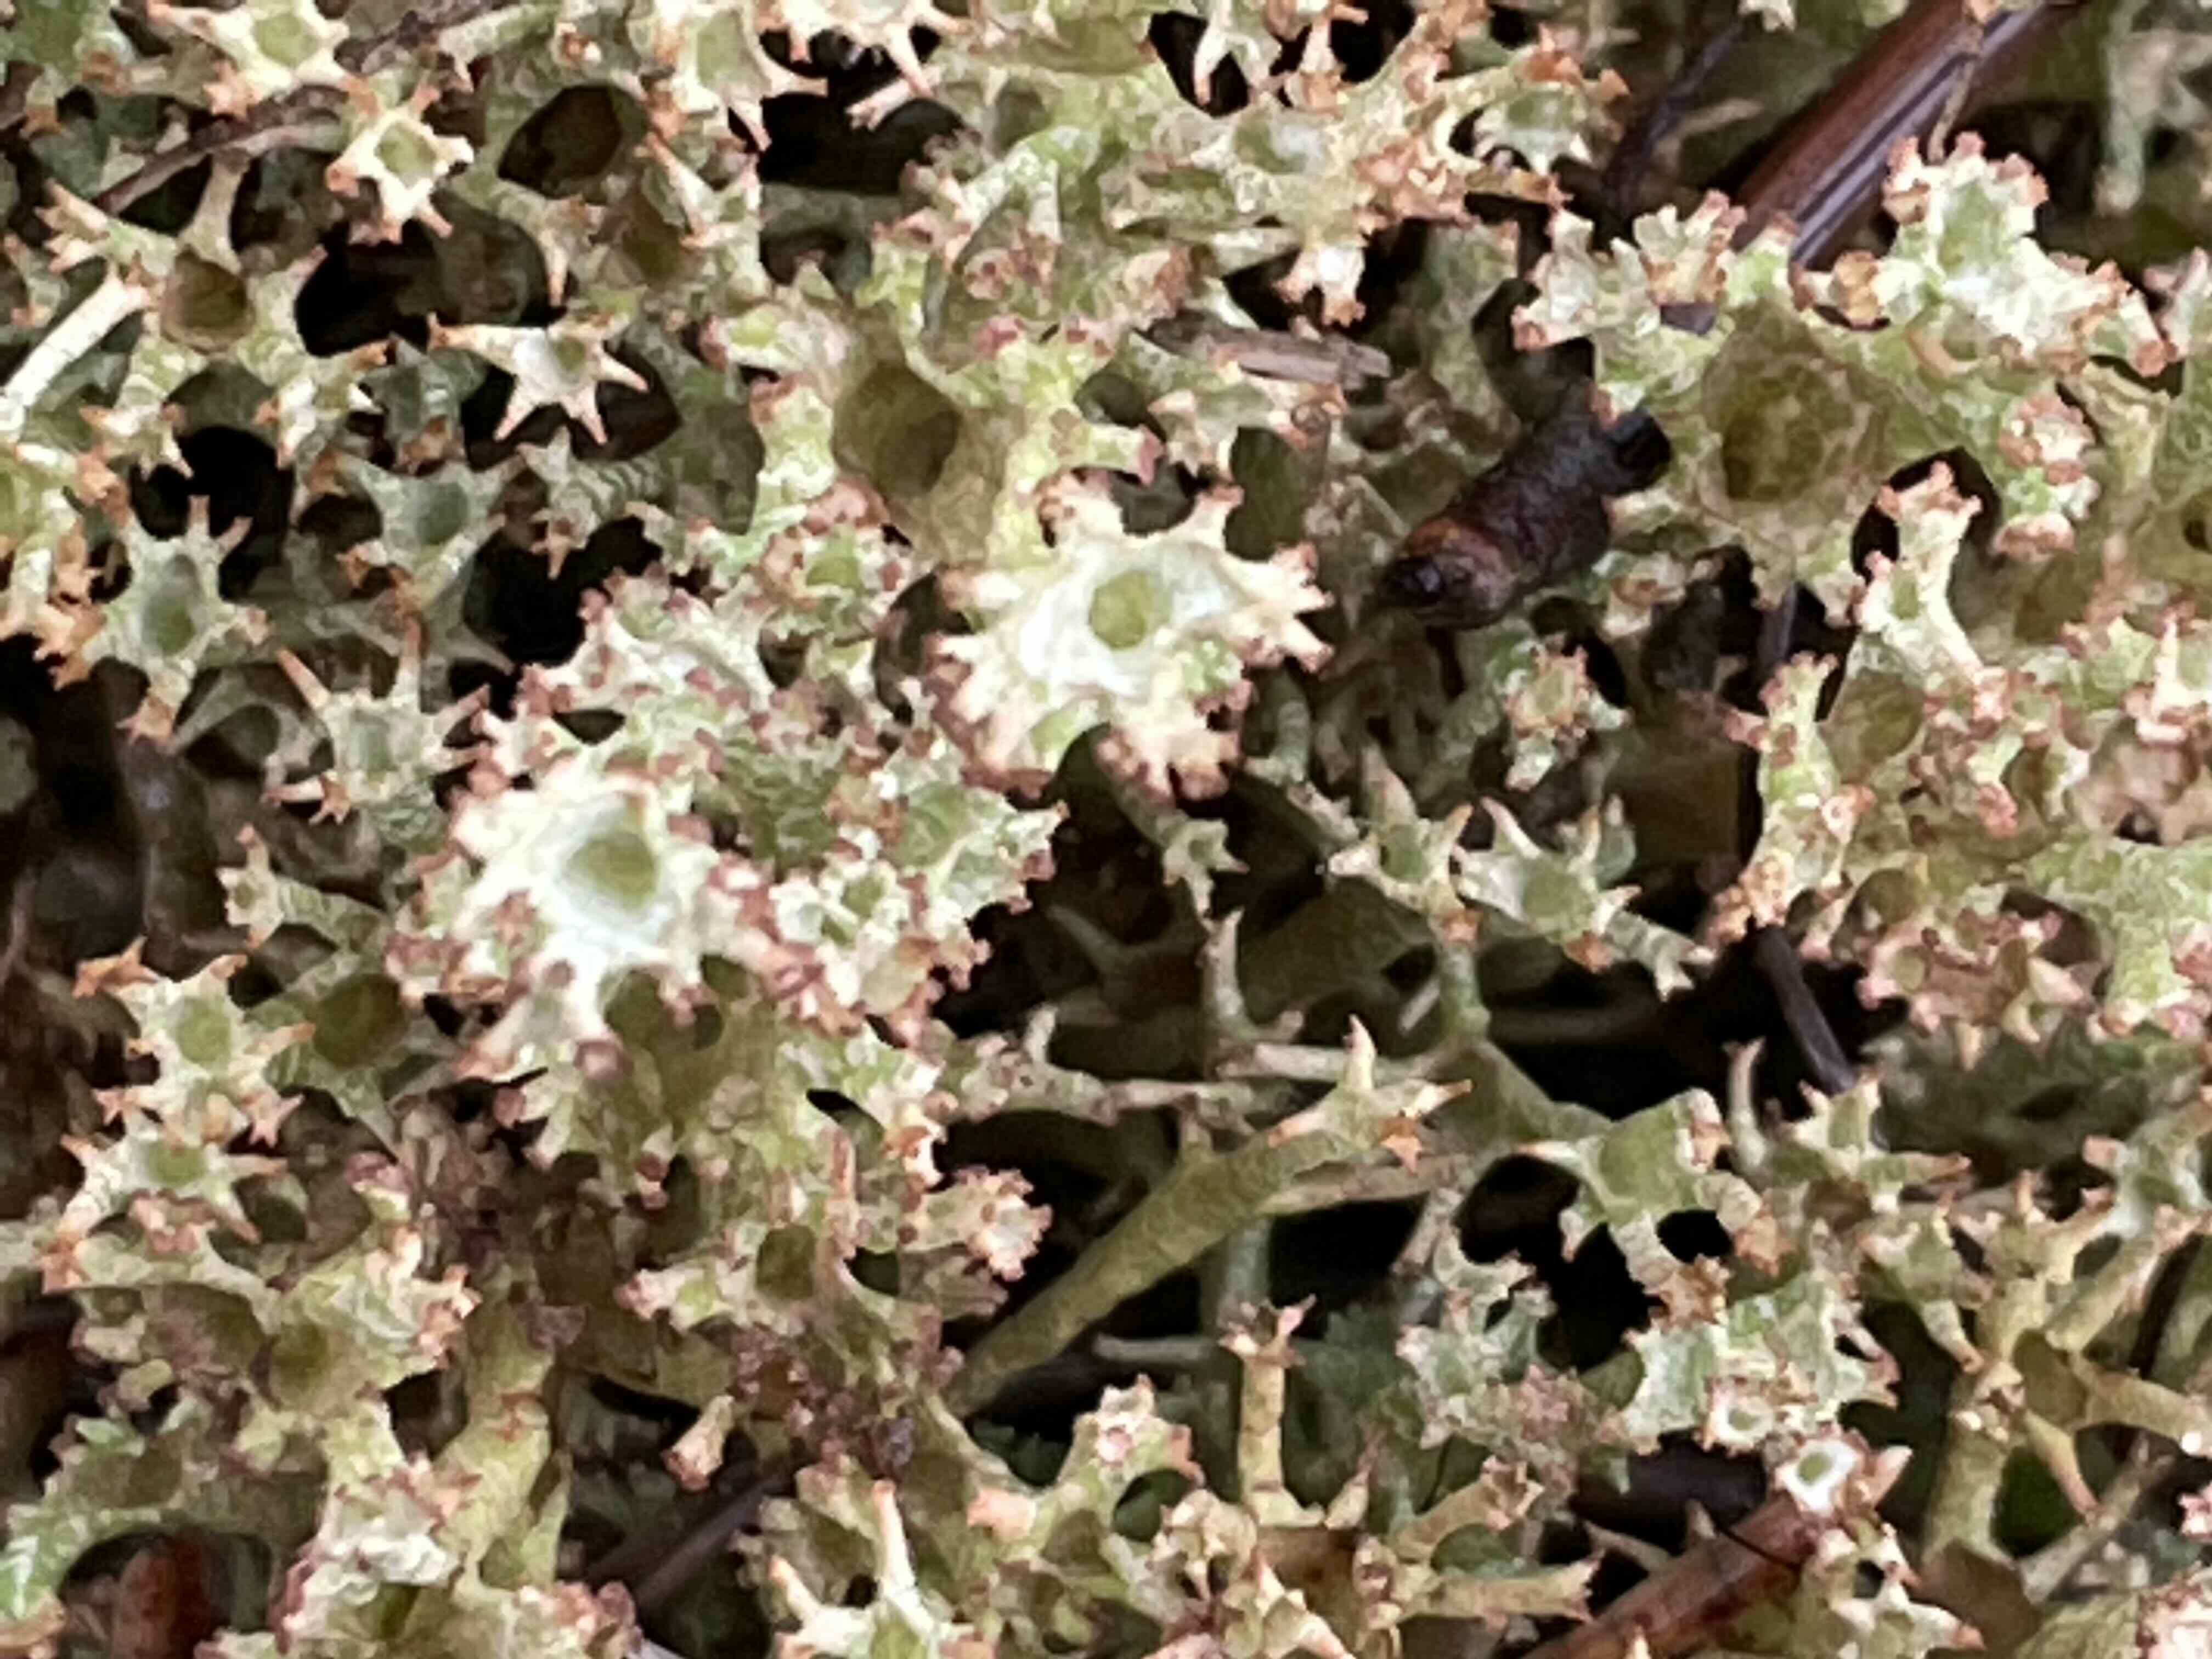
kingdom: Fungi
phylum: Ascomycota
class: Lecanoromycetes
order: Lecanorales
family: Cladoniaceae
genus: Cladonia
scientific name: Cladonia crispata
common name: takket bægerlav
